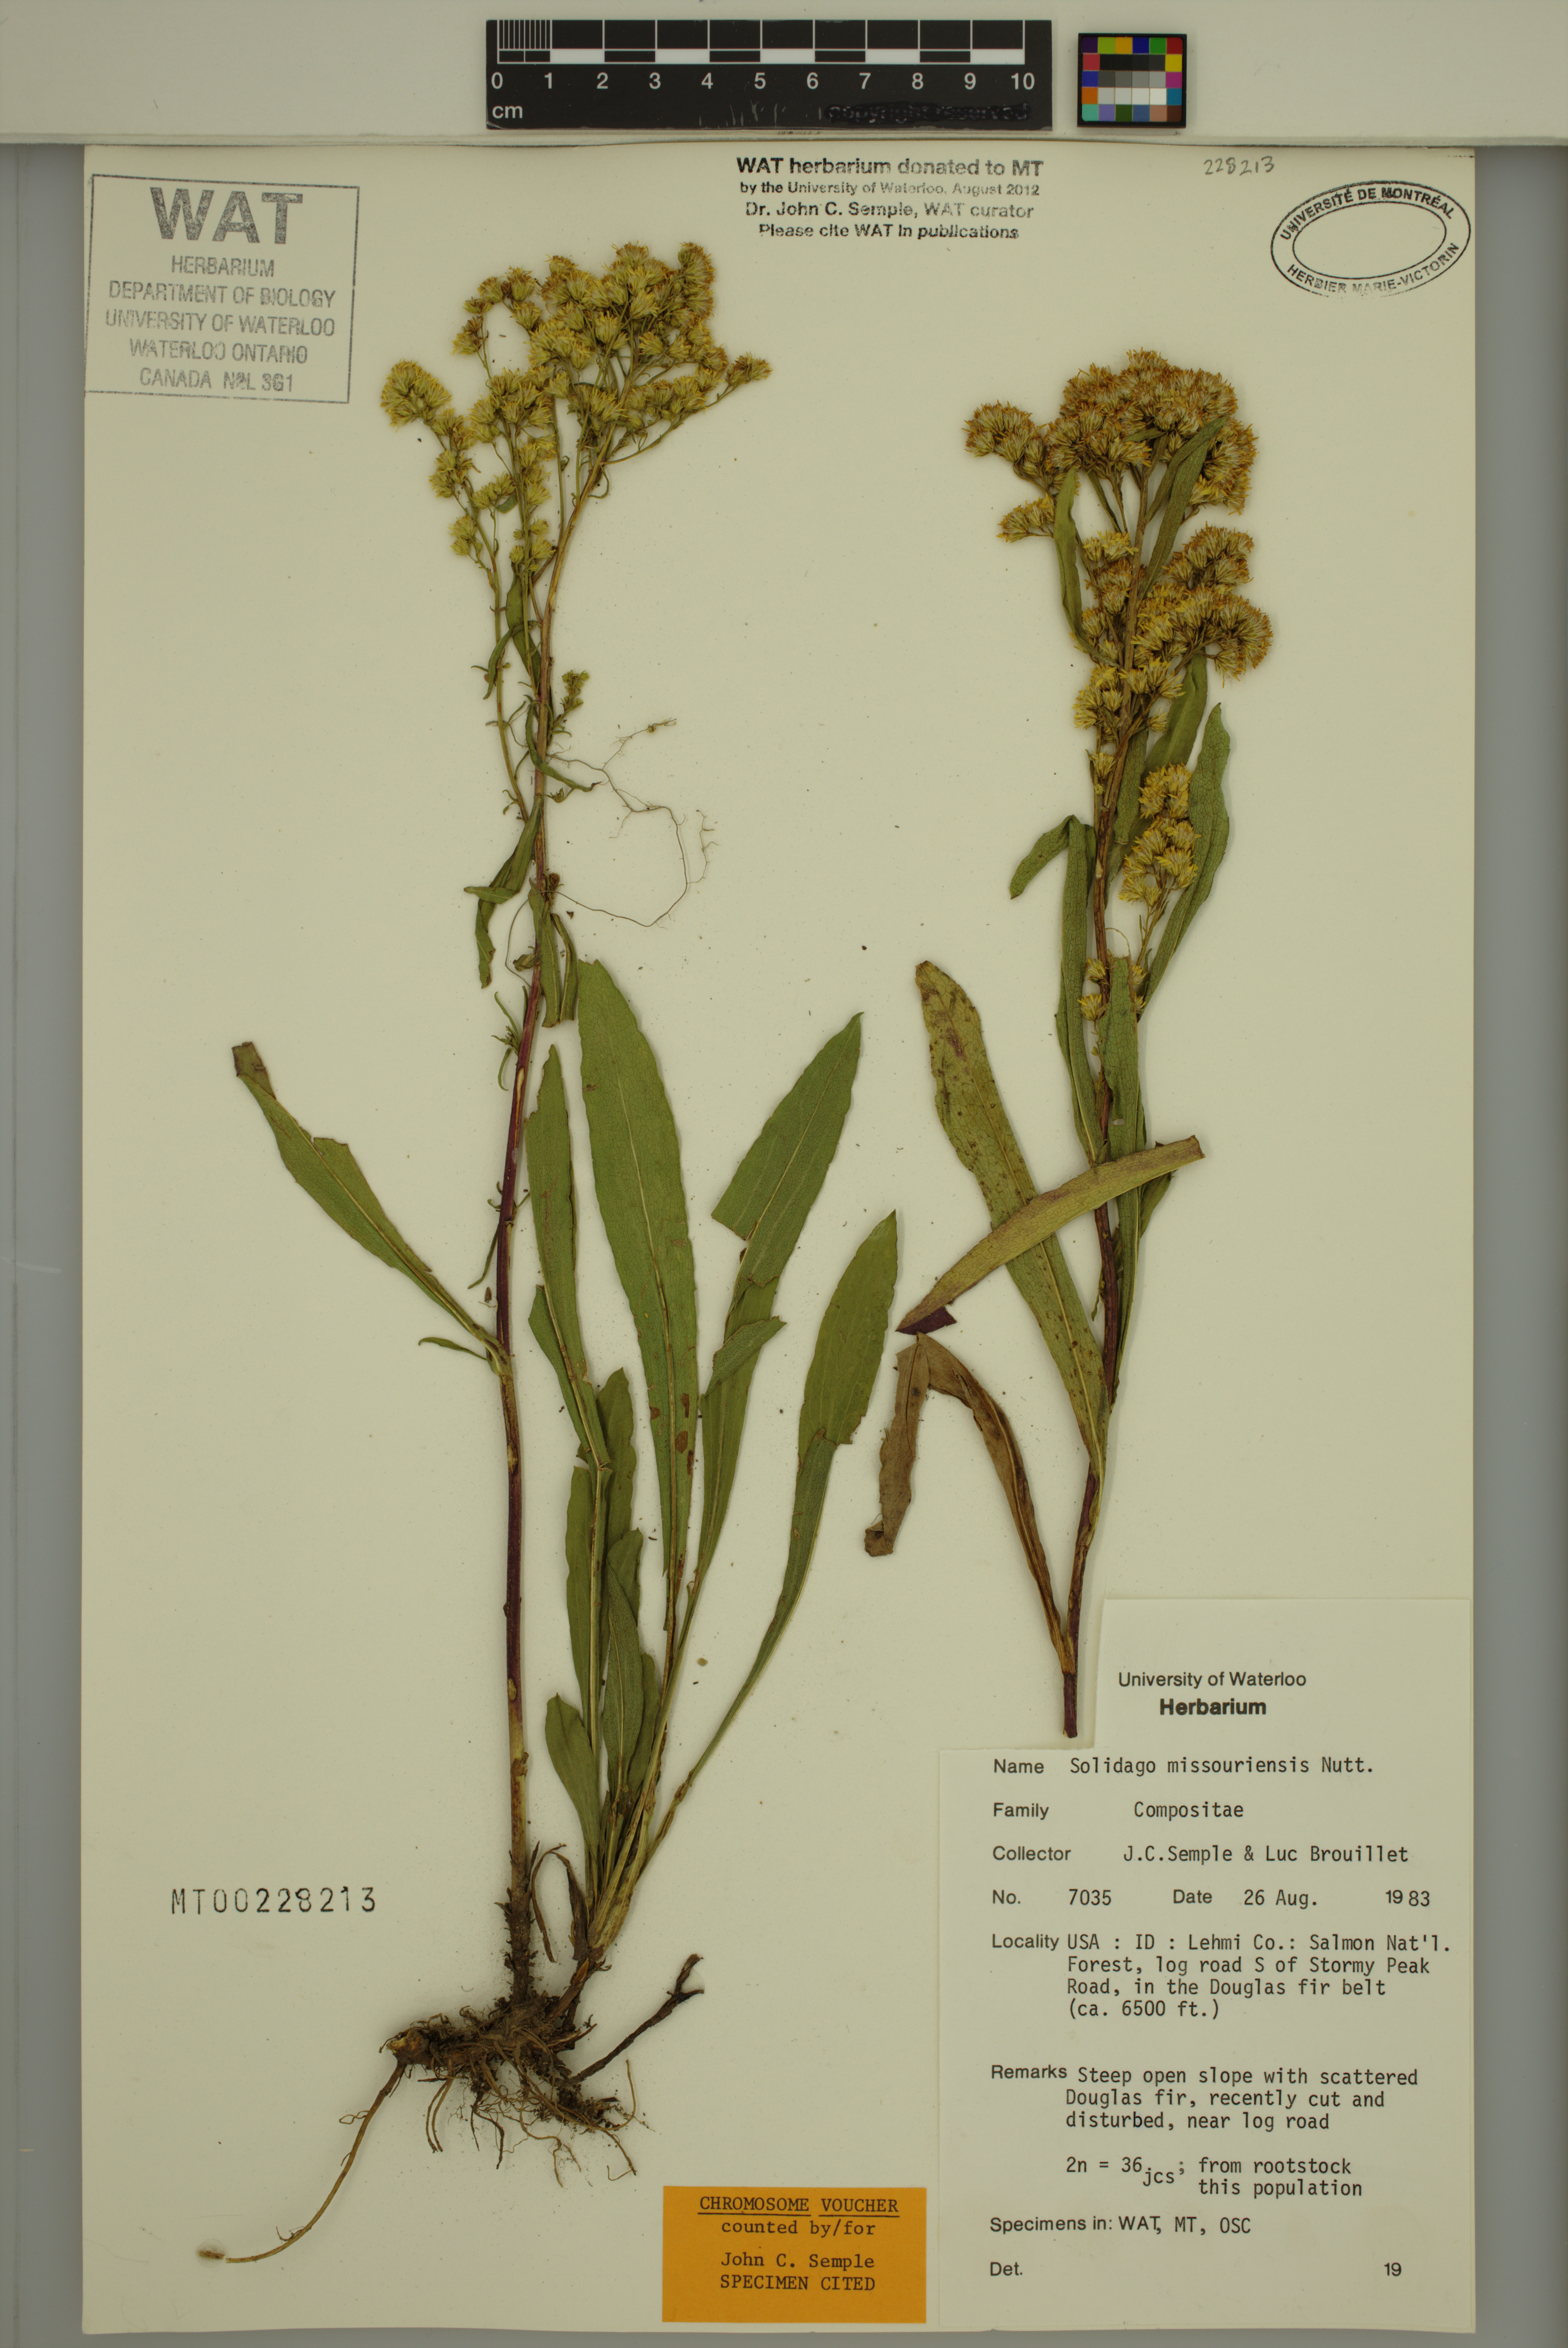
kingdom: Plantae
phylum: Tracheophyta
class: Magnoliopsida
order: Asterales
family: Asteraceae
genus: Solidago
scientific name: Solidago missouriensis
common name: Prairie goldenrod
